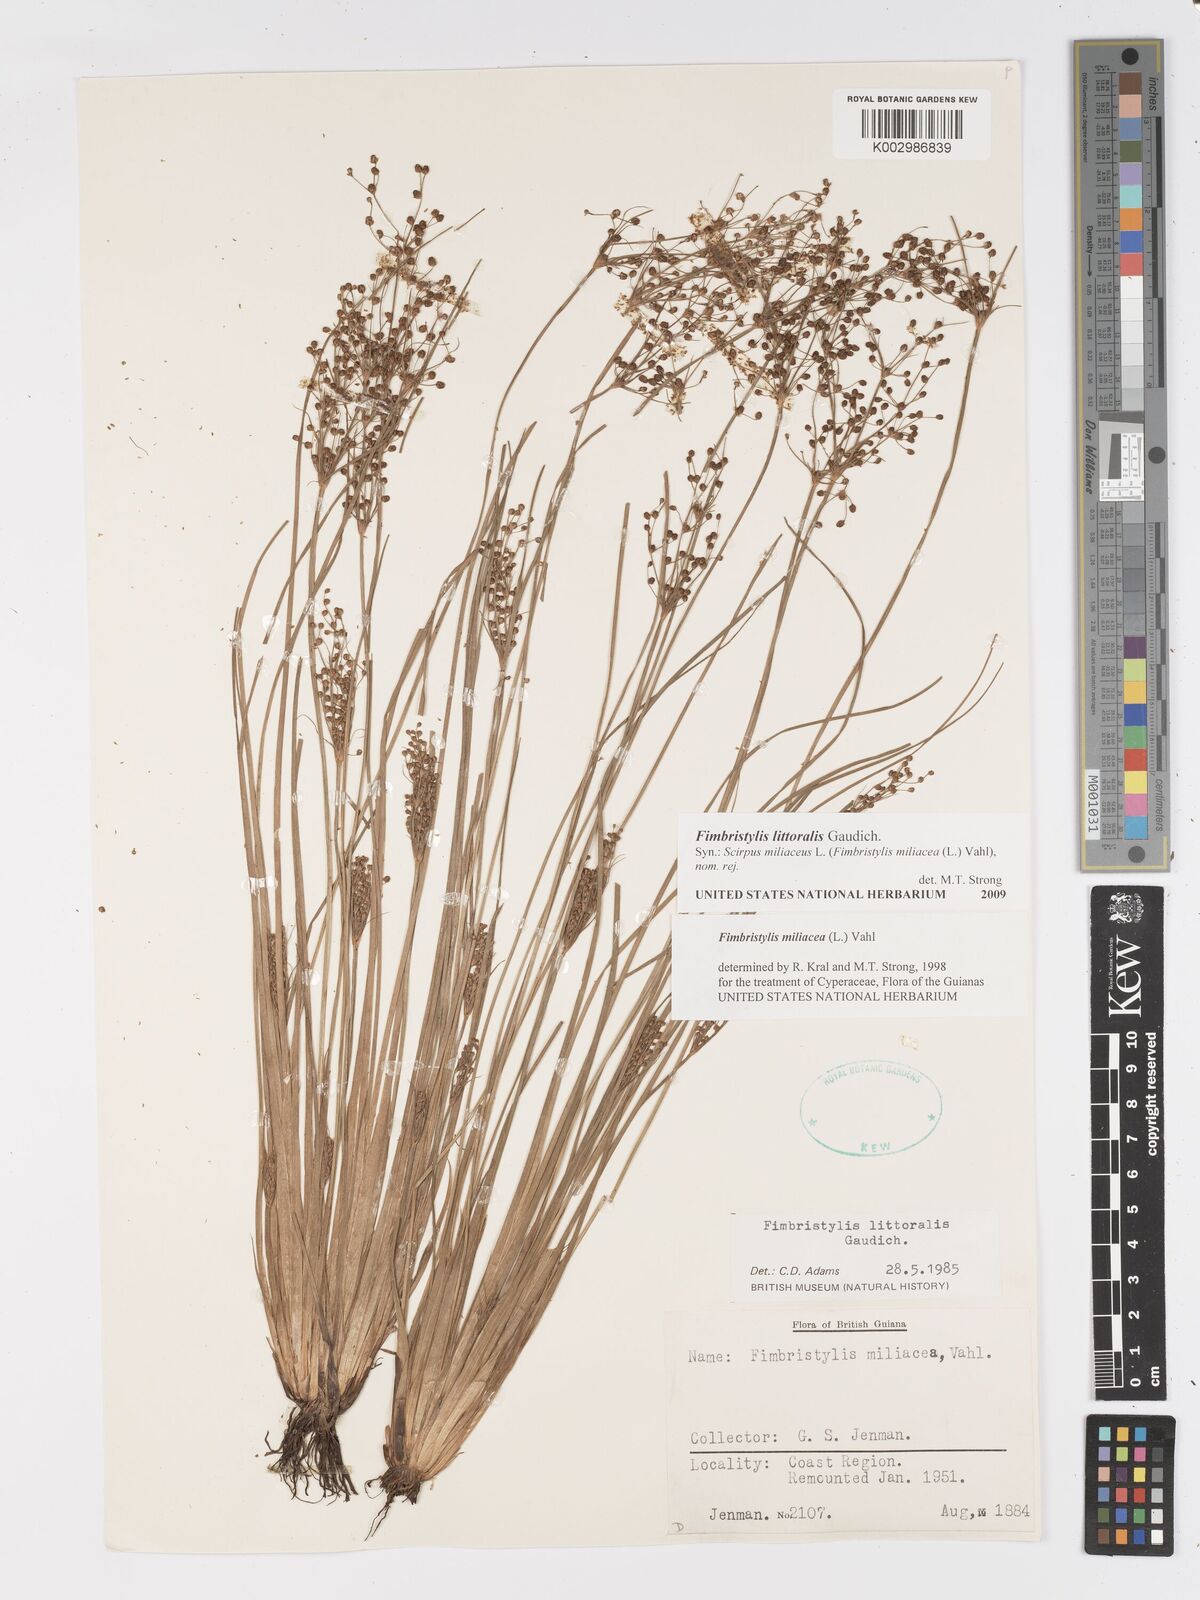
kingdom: Plantae
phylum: Tracheophyta
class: Liliopsida
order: Poales
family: Cyperaceae
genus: Fimbristylis
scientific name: Fimbristylis littoralis
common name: Fimbry
